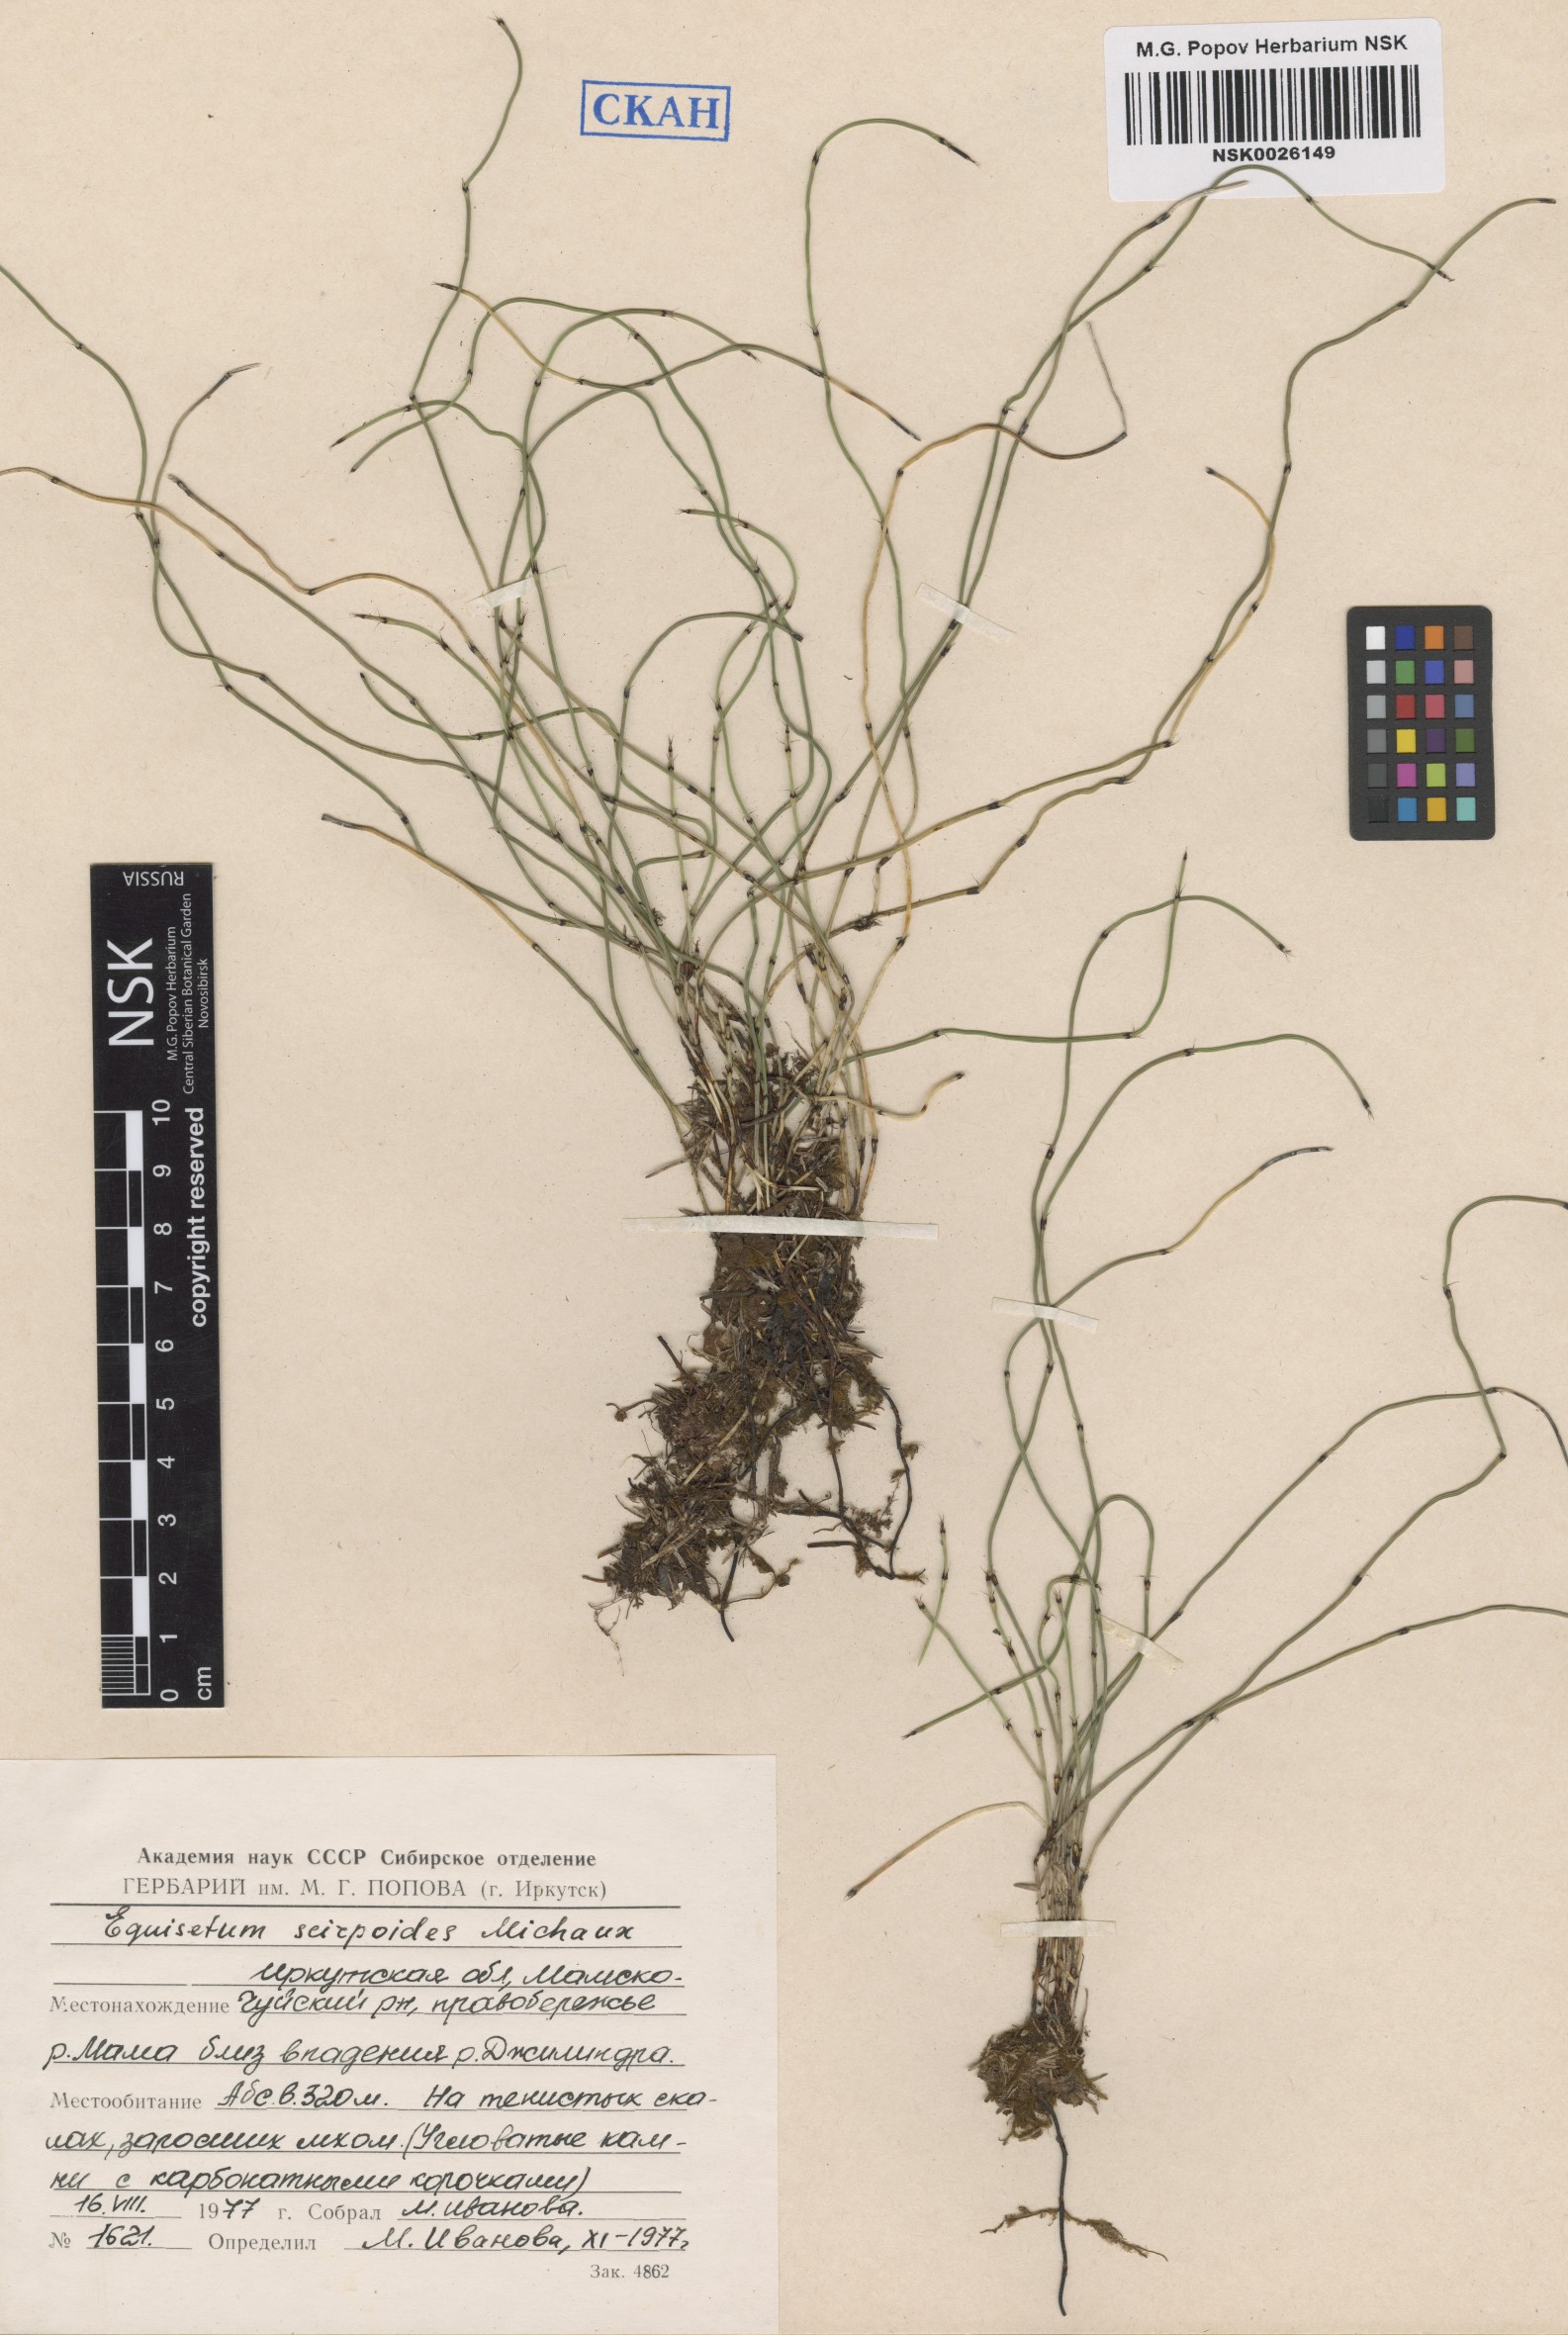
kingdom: Plantae
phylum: Tracheophyta
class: Polypodiopsida
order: Equisetales
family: Equisetaceae
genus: Equisetum
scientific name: Equisetum scirpoides
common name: Delicate horsetail
